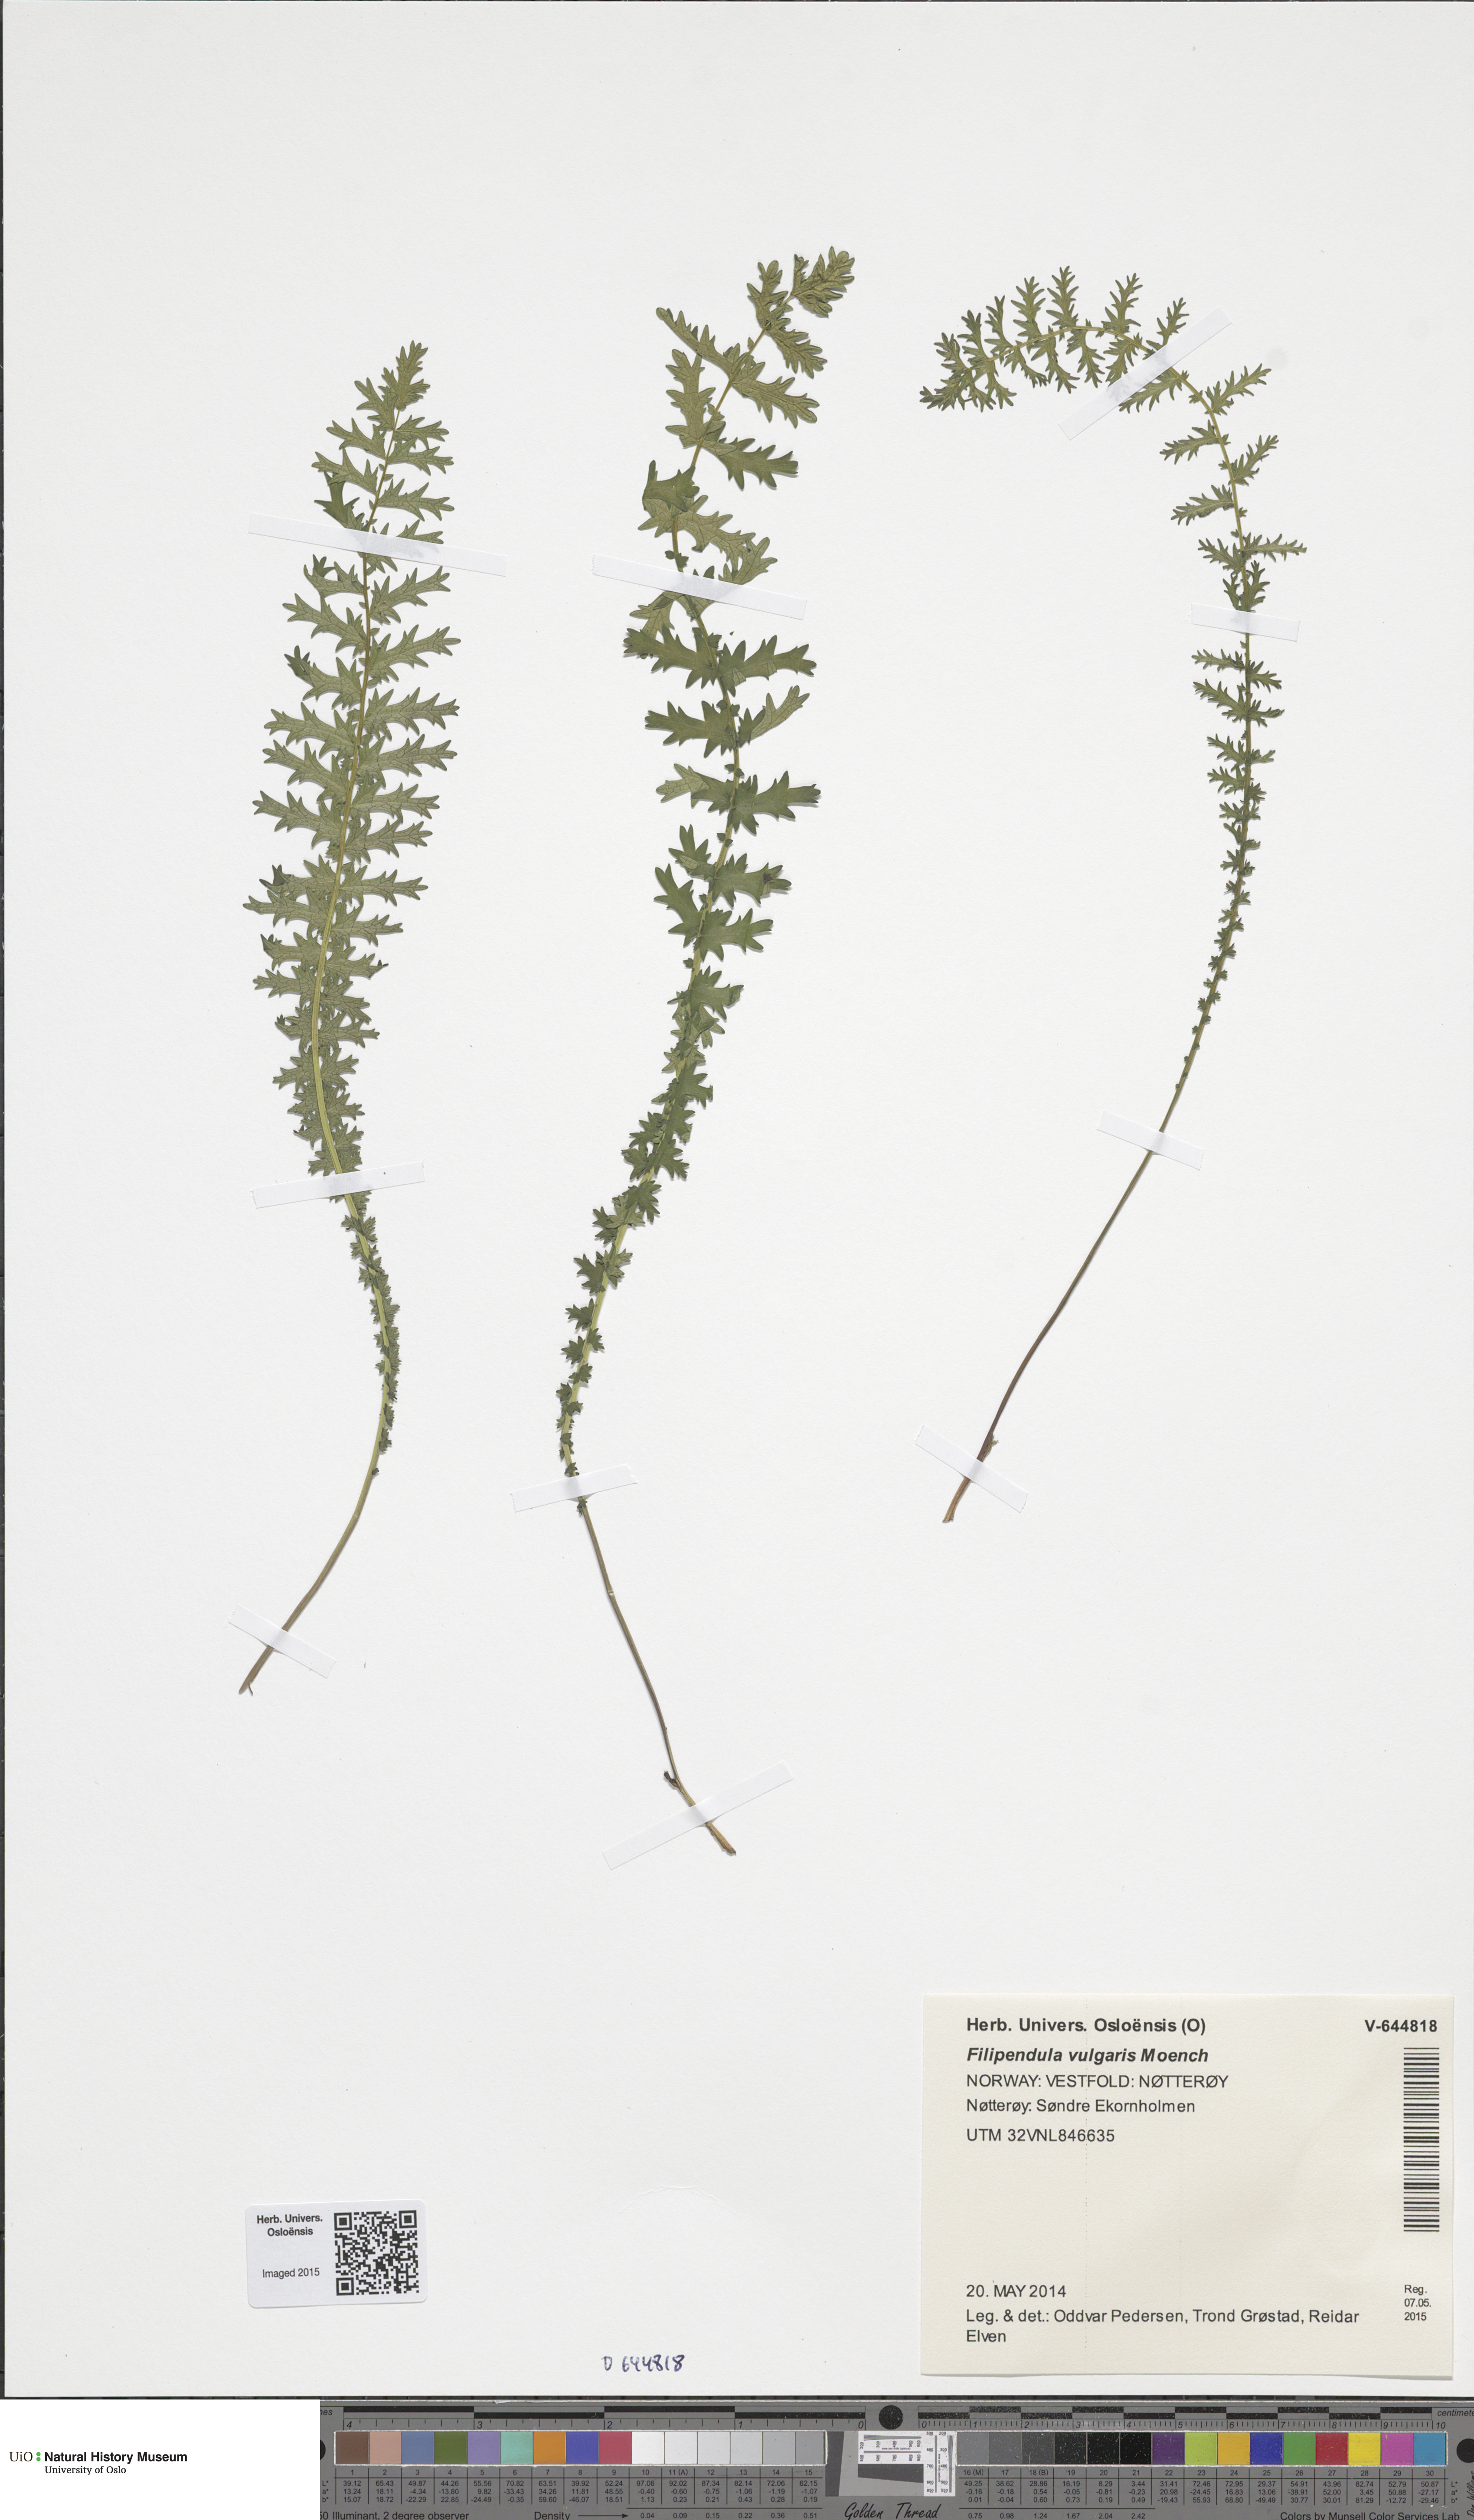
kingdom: Plantae
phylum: Tracheophyta
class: Magnoliopsida
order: Rosales
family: Rosaceae
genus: Filipendula
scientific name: Filipendula vulgaris
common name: Dropwort
